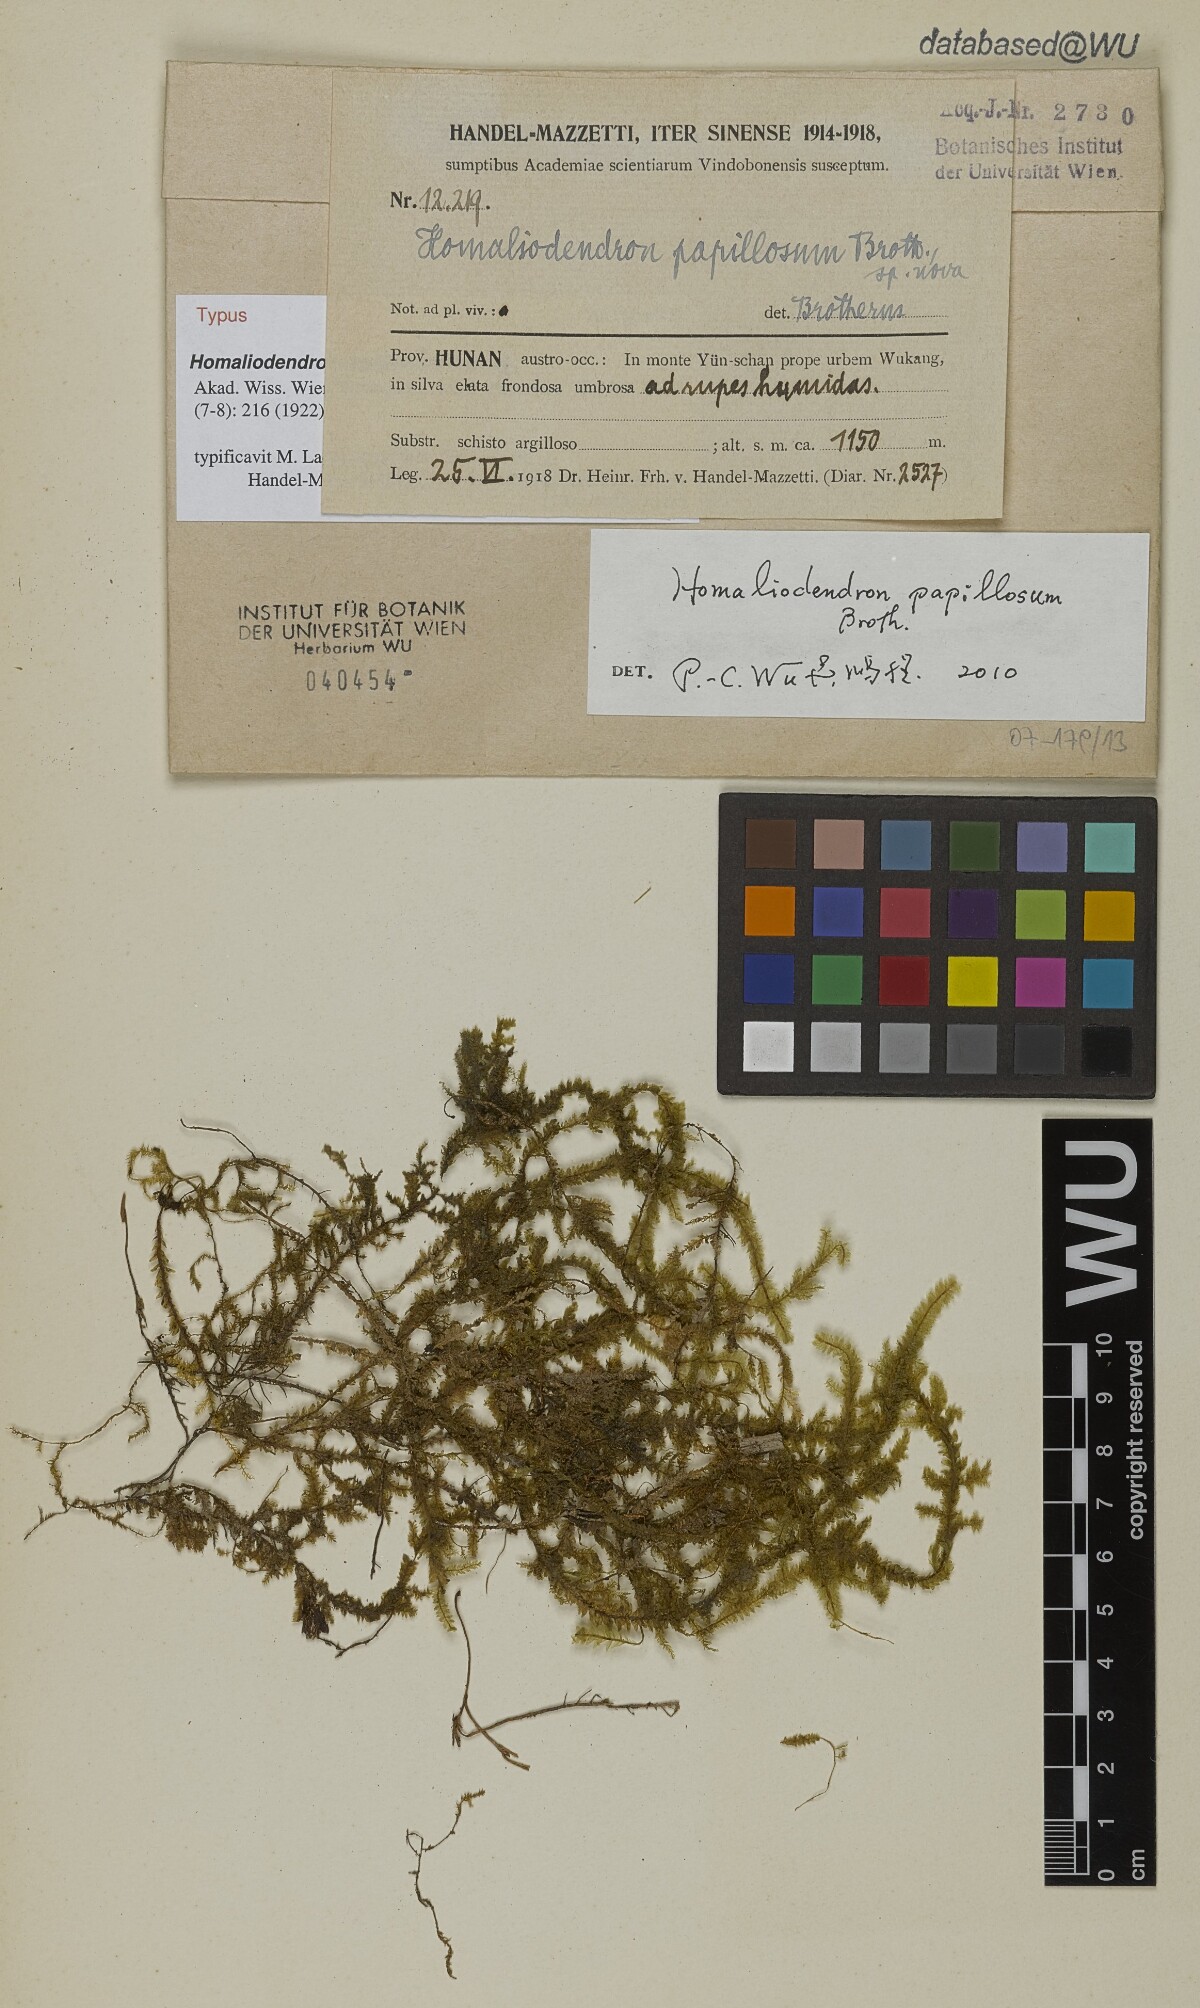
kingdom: Plantae
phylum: Bryophyta
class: Bryopsida
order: Hypnales
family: Neckeraceae
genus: Homaliodendron
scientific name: Homaliodendron papillosum
